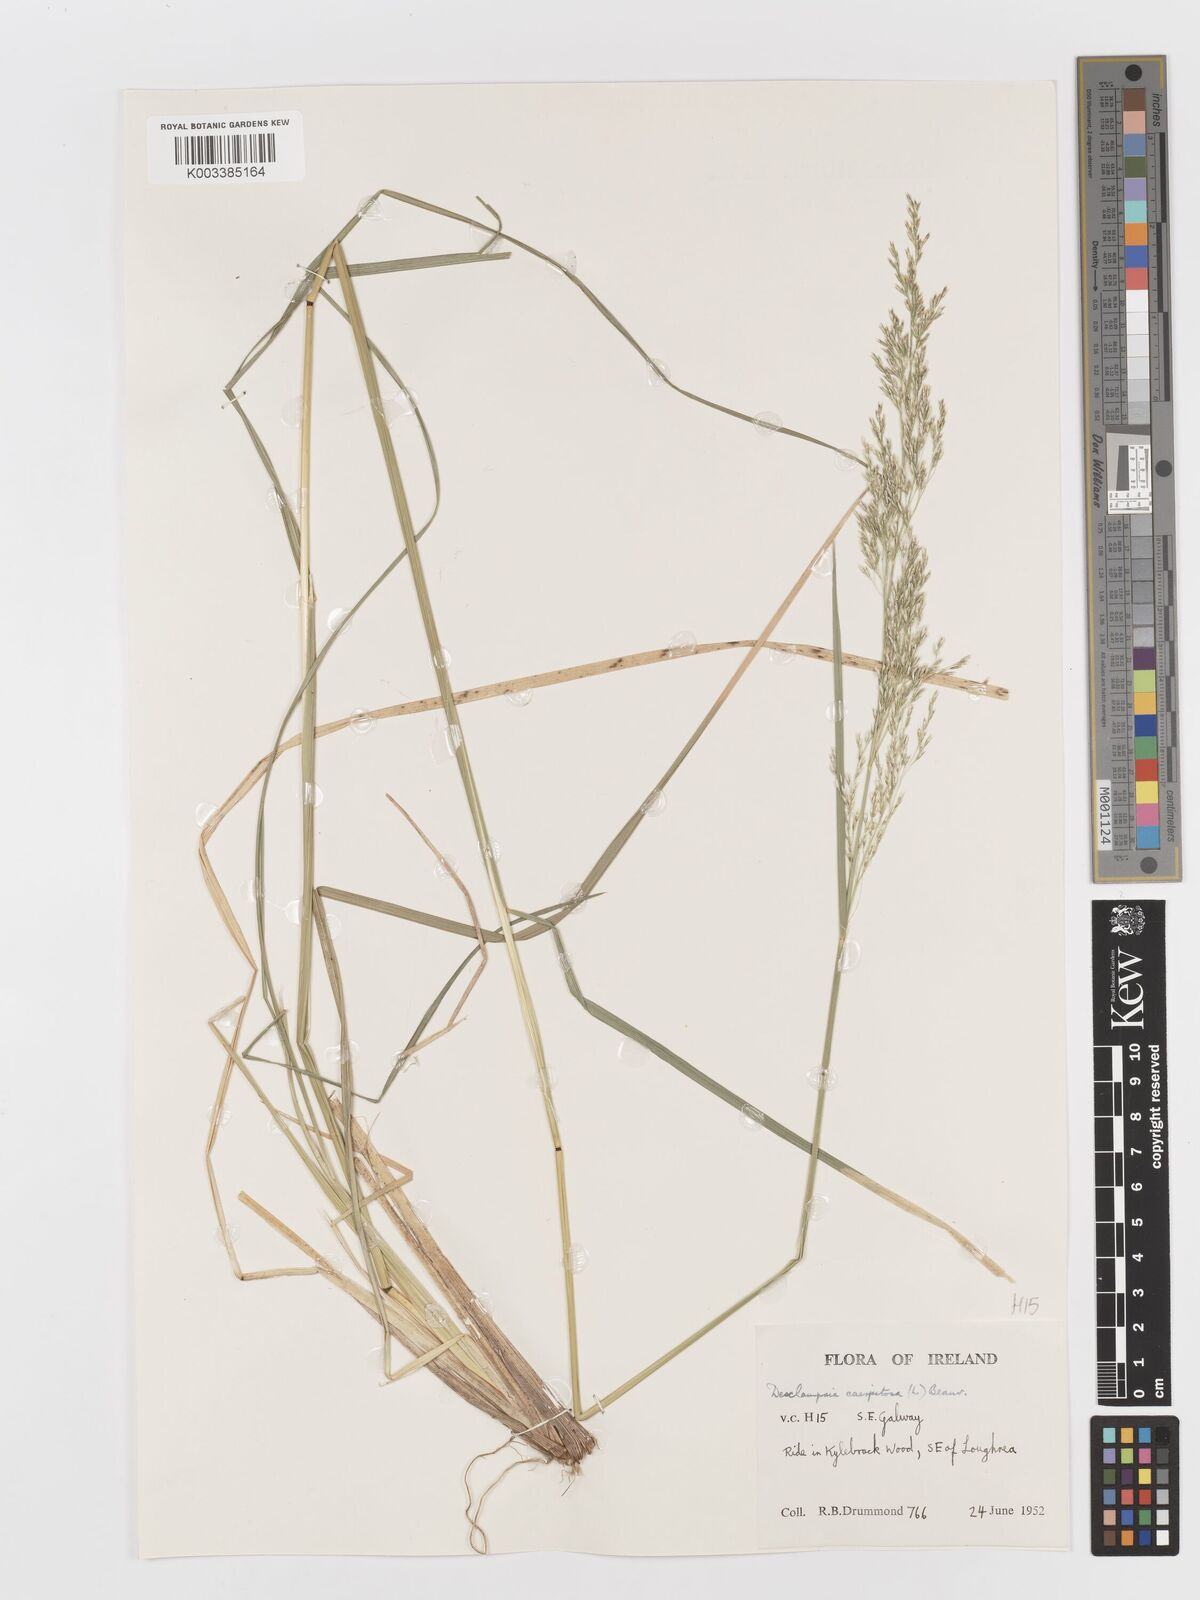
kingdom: Plantae
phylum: Tracheophyta
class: Liliopsida
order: Poales
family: Poaceae
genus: Deschampsia
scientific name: Deschampsia cespitosa
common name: Tufted hair-grass
